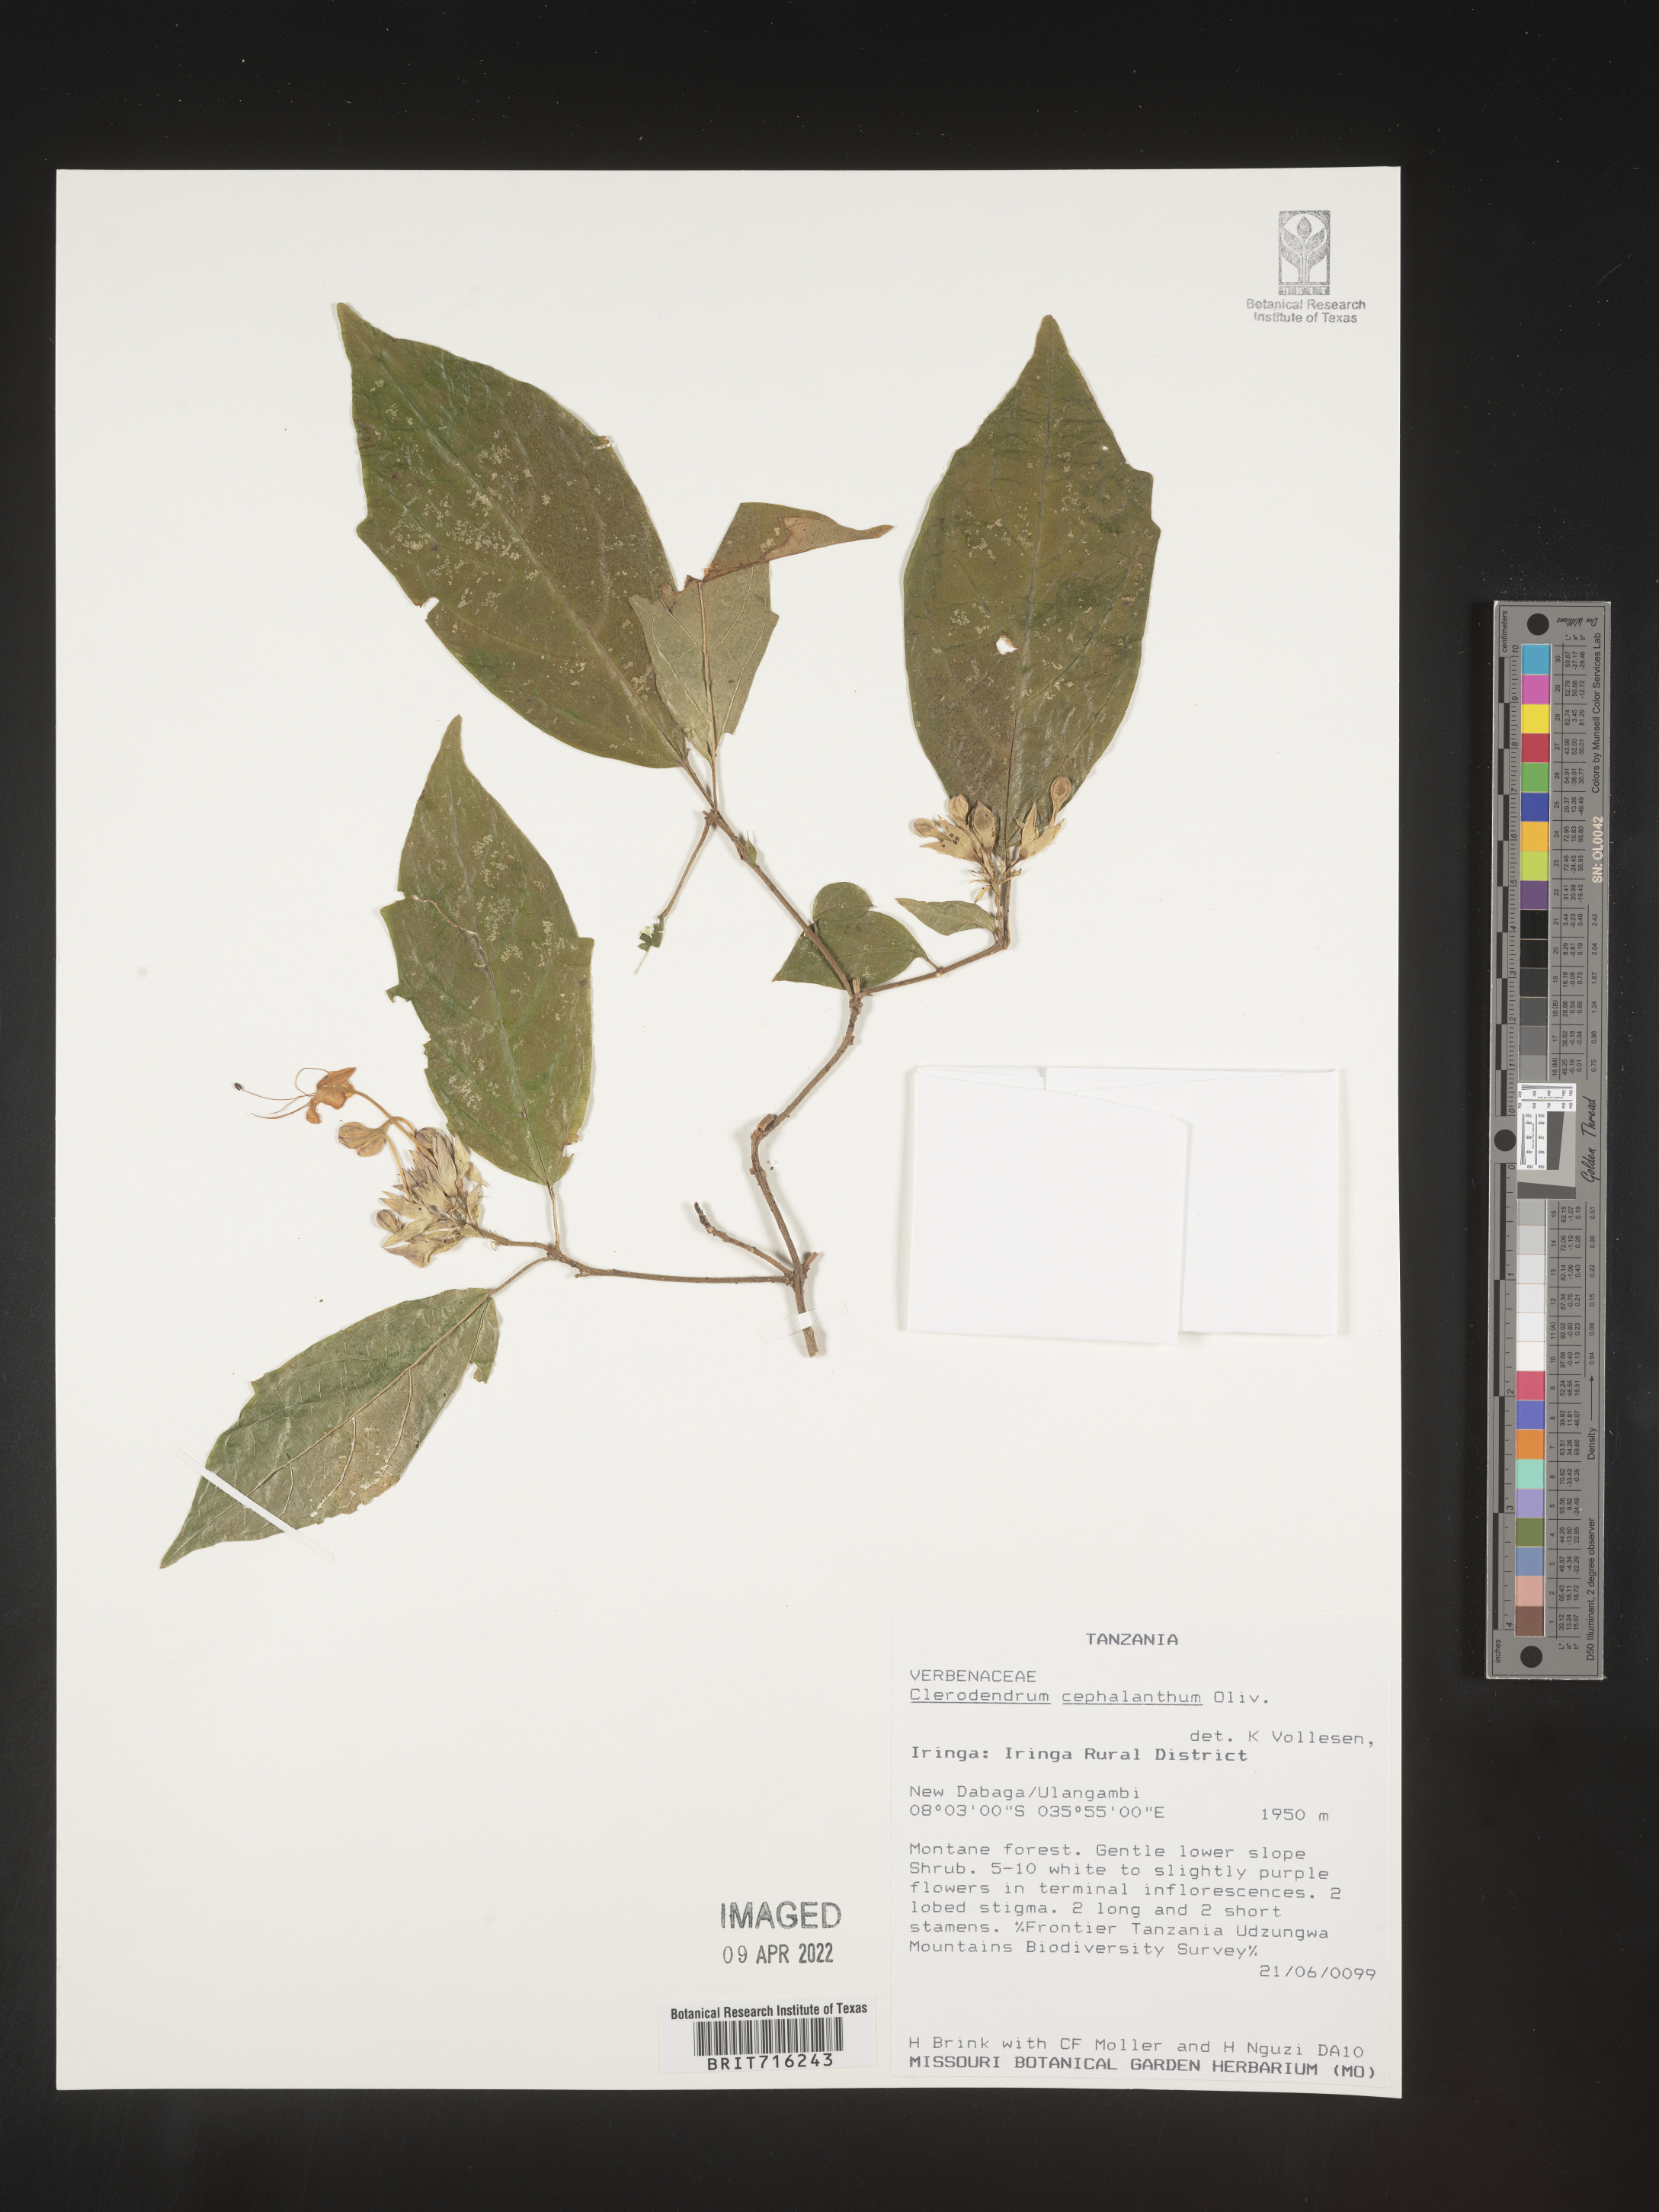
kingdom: Plantae
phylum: Tracheophyta
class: Magnoliopsida
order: Lamiales
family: Lamiaceae
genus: Clerodendrum
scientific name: Clerodendrum
